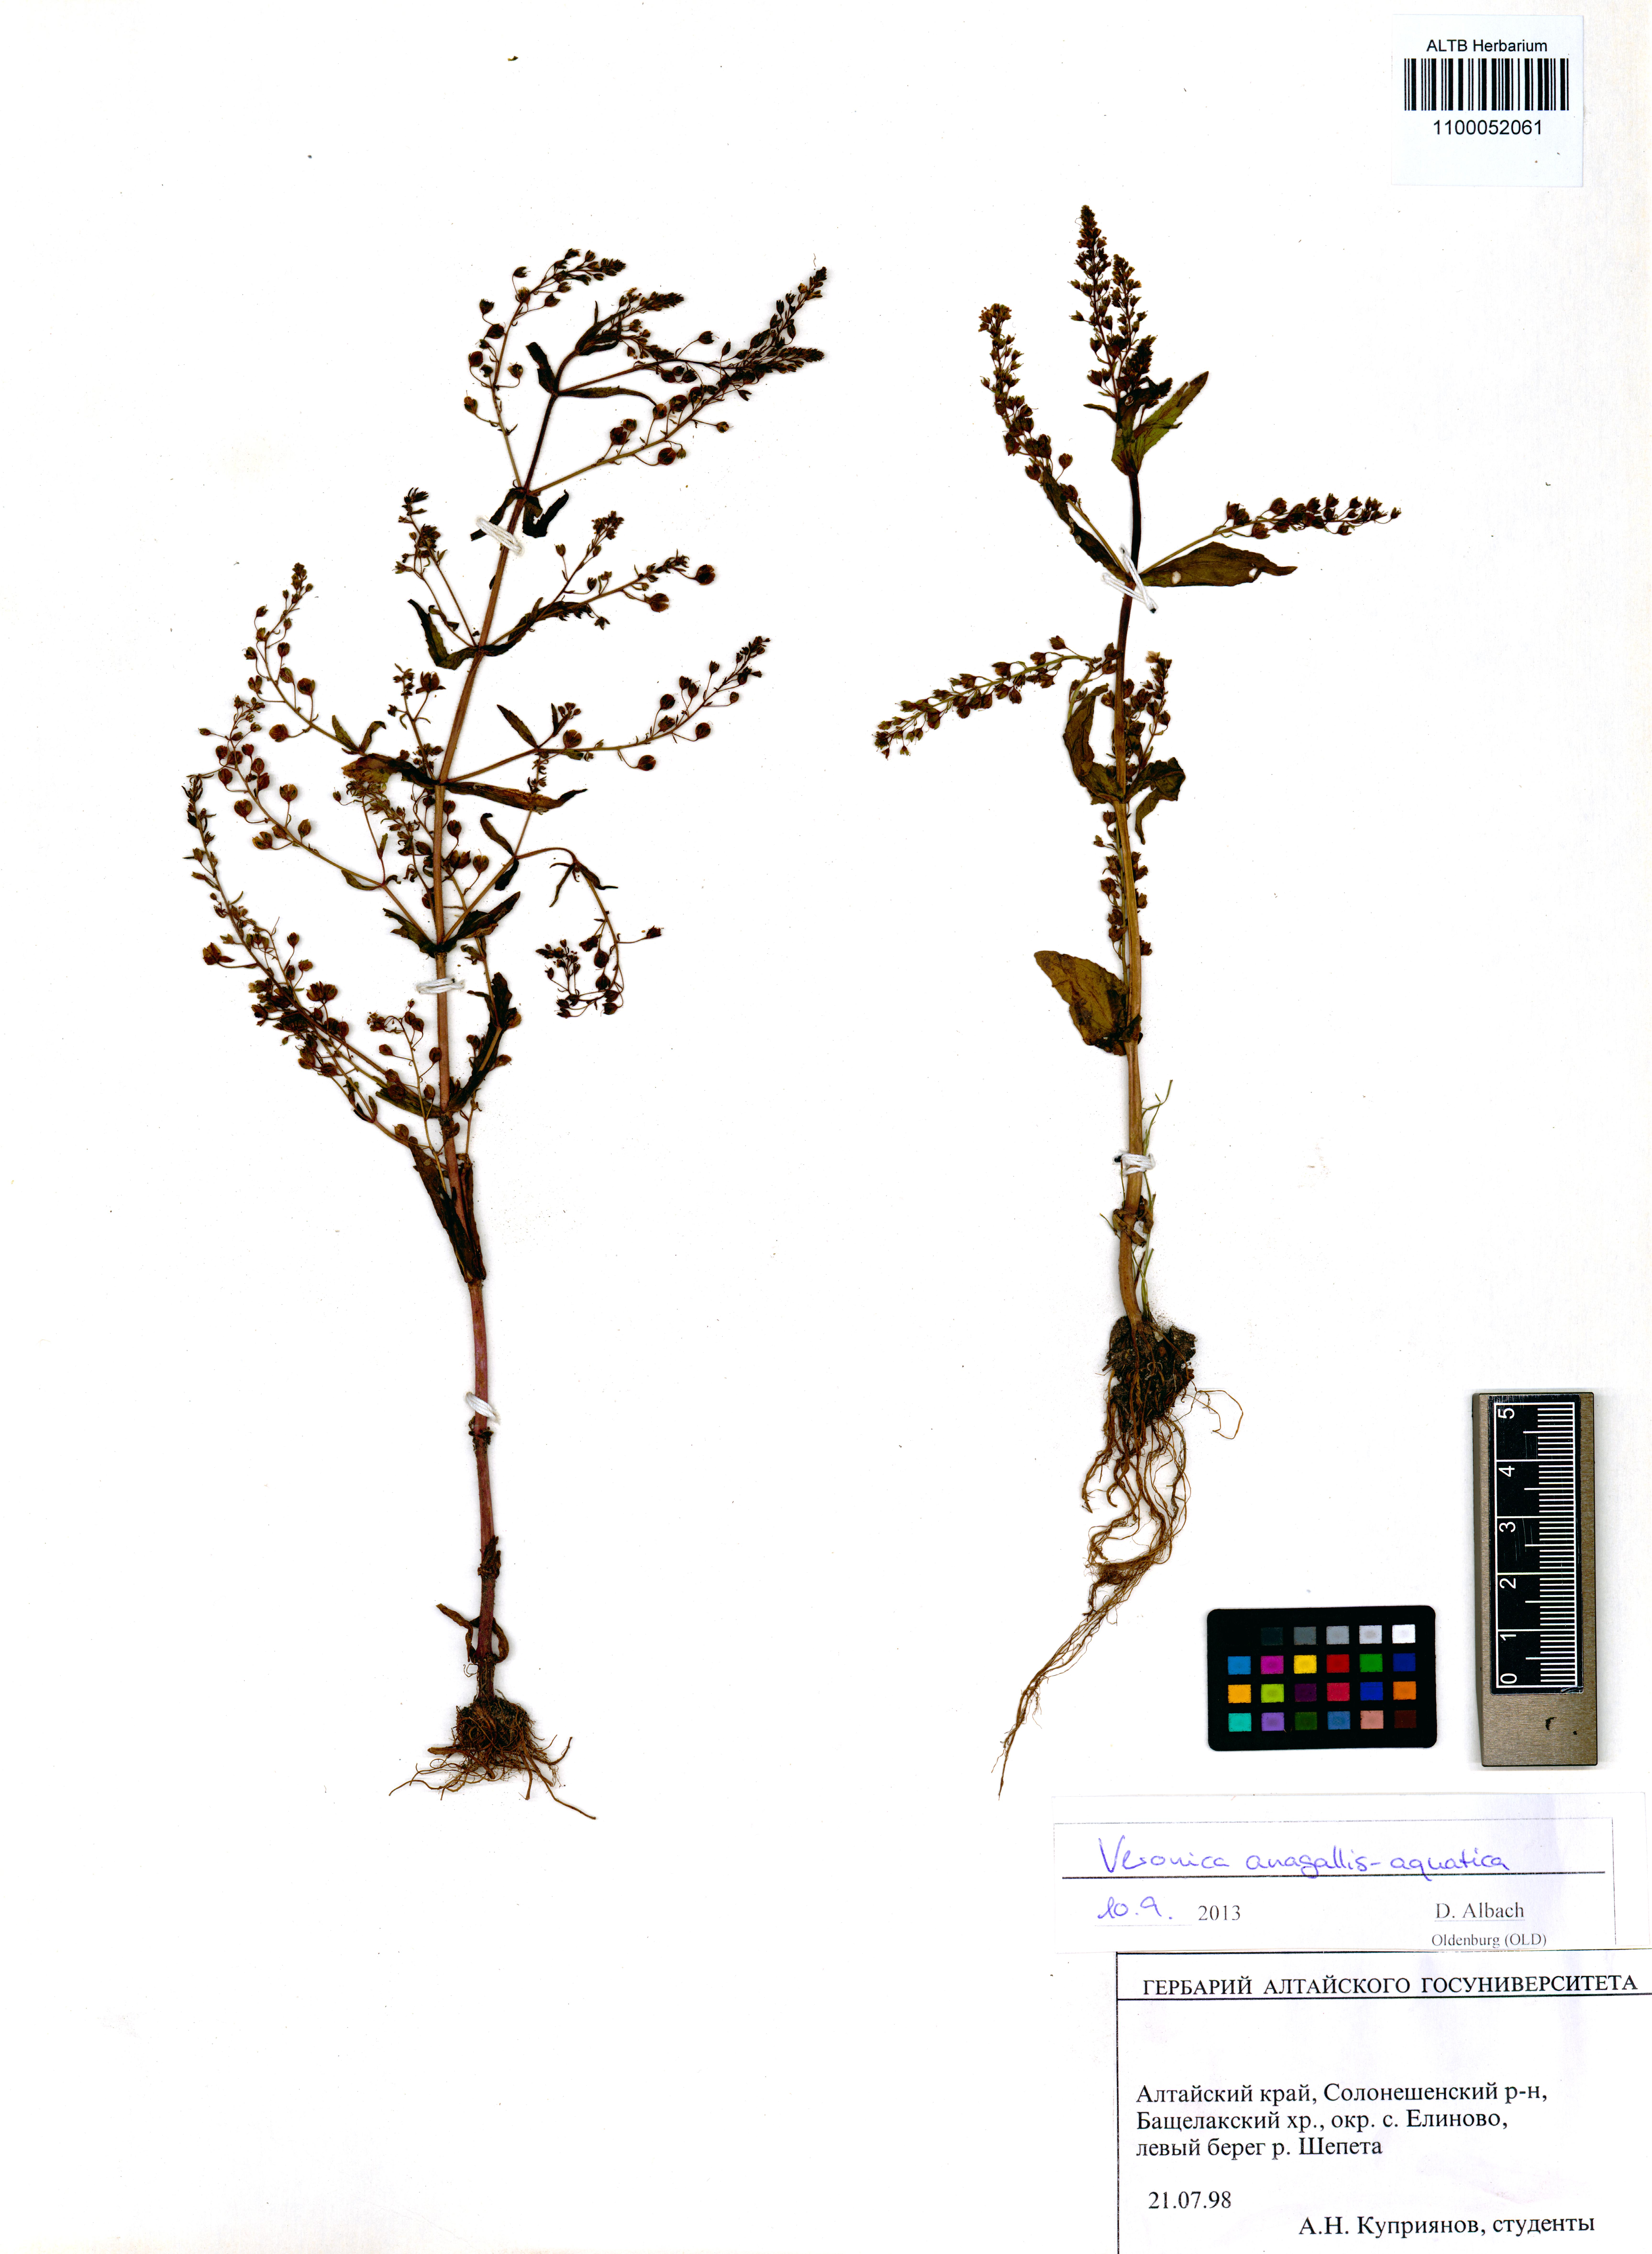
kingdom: Plantae
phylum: Tracheophyta
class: Magnoliopsida
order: Lamiales
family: Plantaginaceae
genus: Veronica
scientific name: Veronica anagallis-aquatica
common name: Water speedwell
